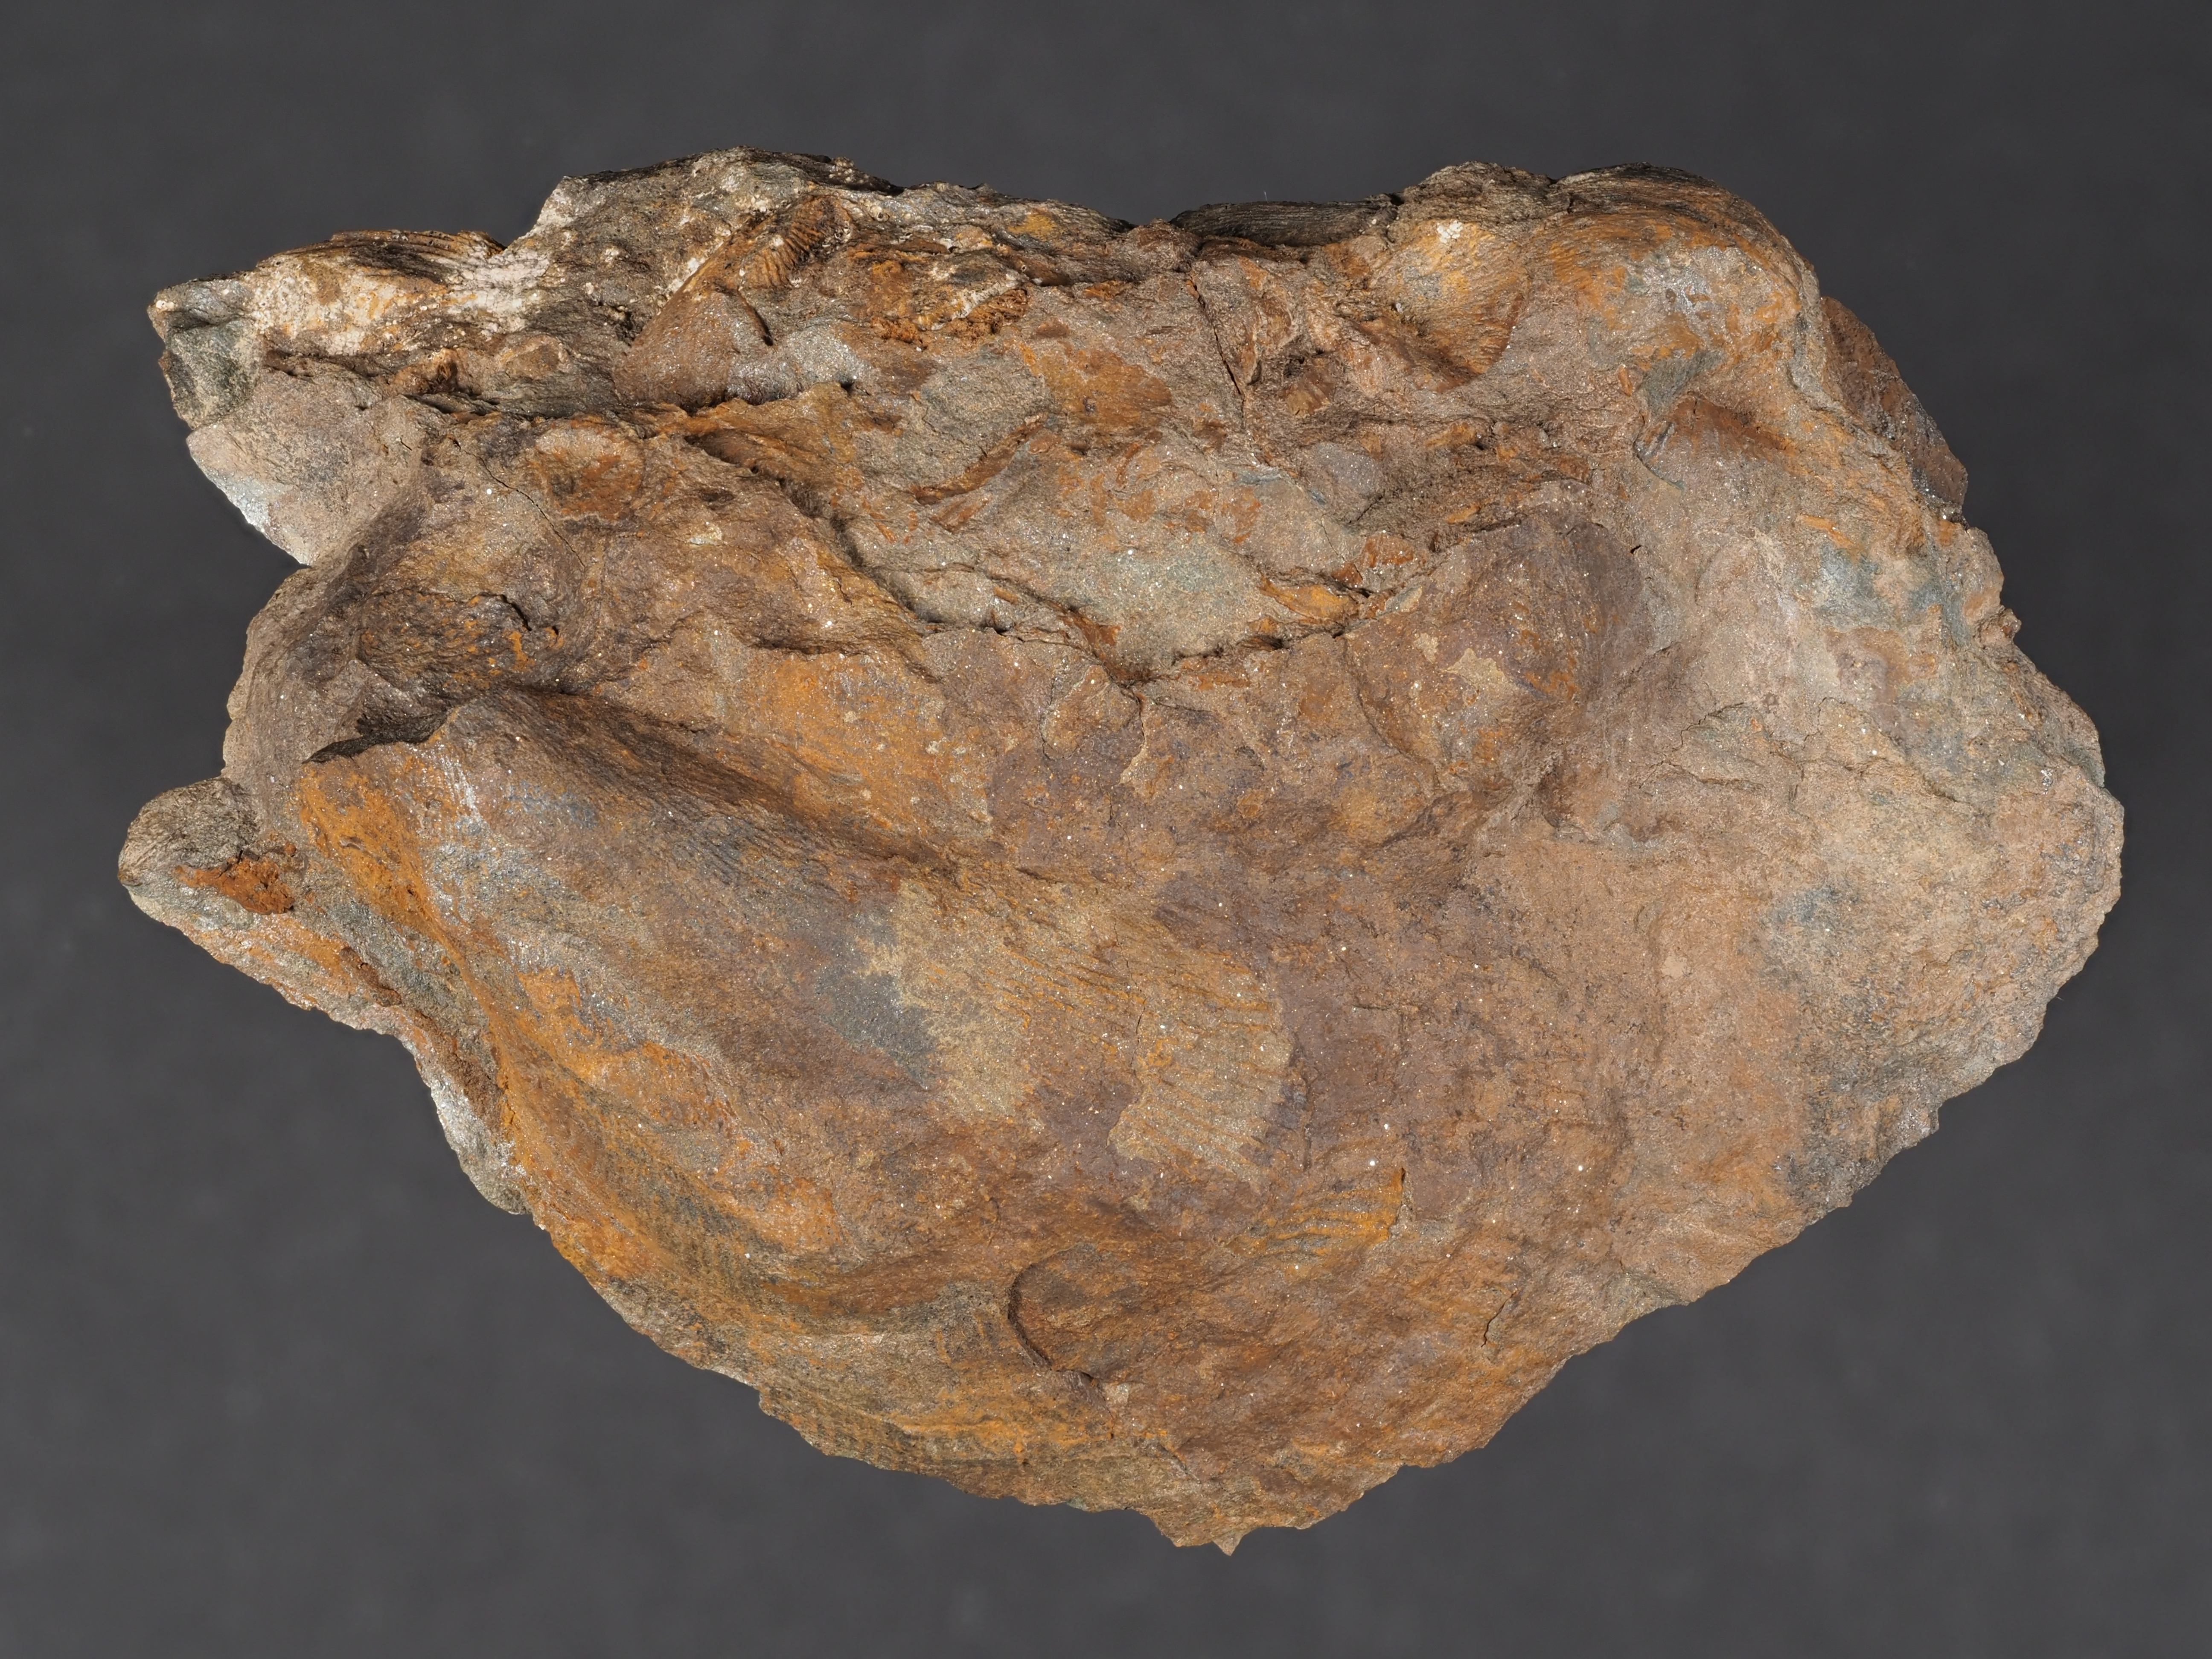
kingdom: Animalia
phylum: Mollusca
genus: Tolmaia
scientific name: Tolmaia
